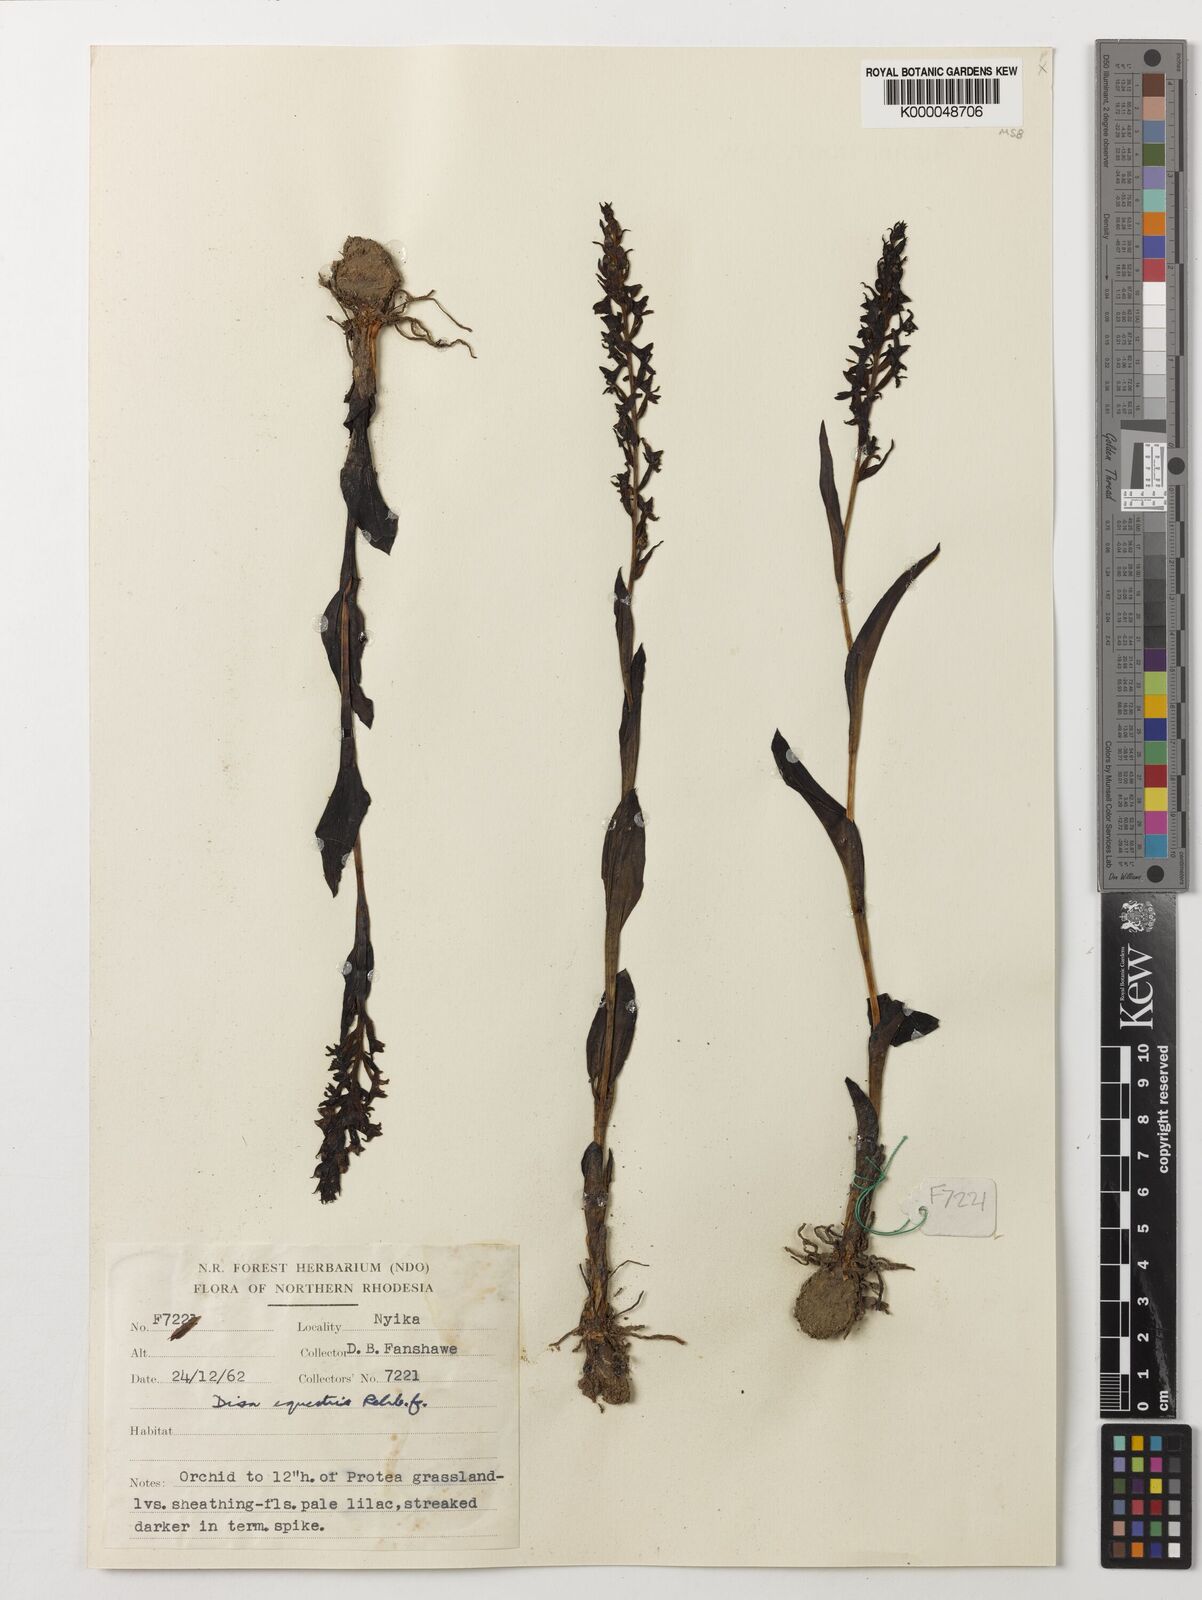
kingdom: Plantae
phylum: Tracheophyta
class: Liliopsida
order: Asparagales
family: Orchidaceae
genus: Disa
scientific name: Disa nyikensis
